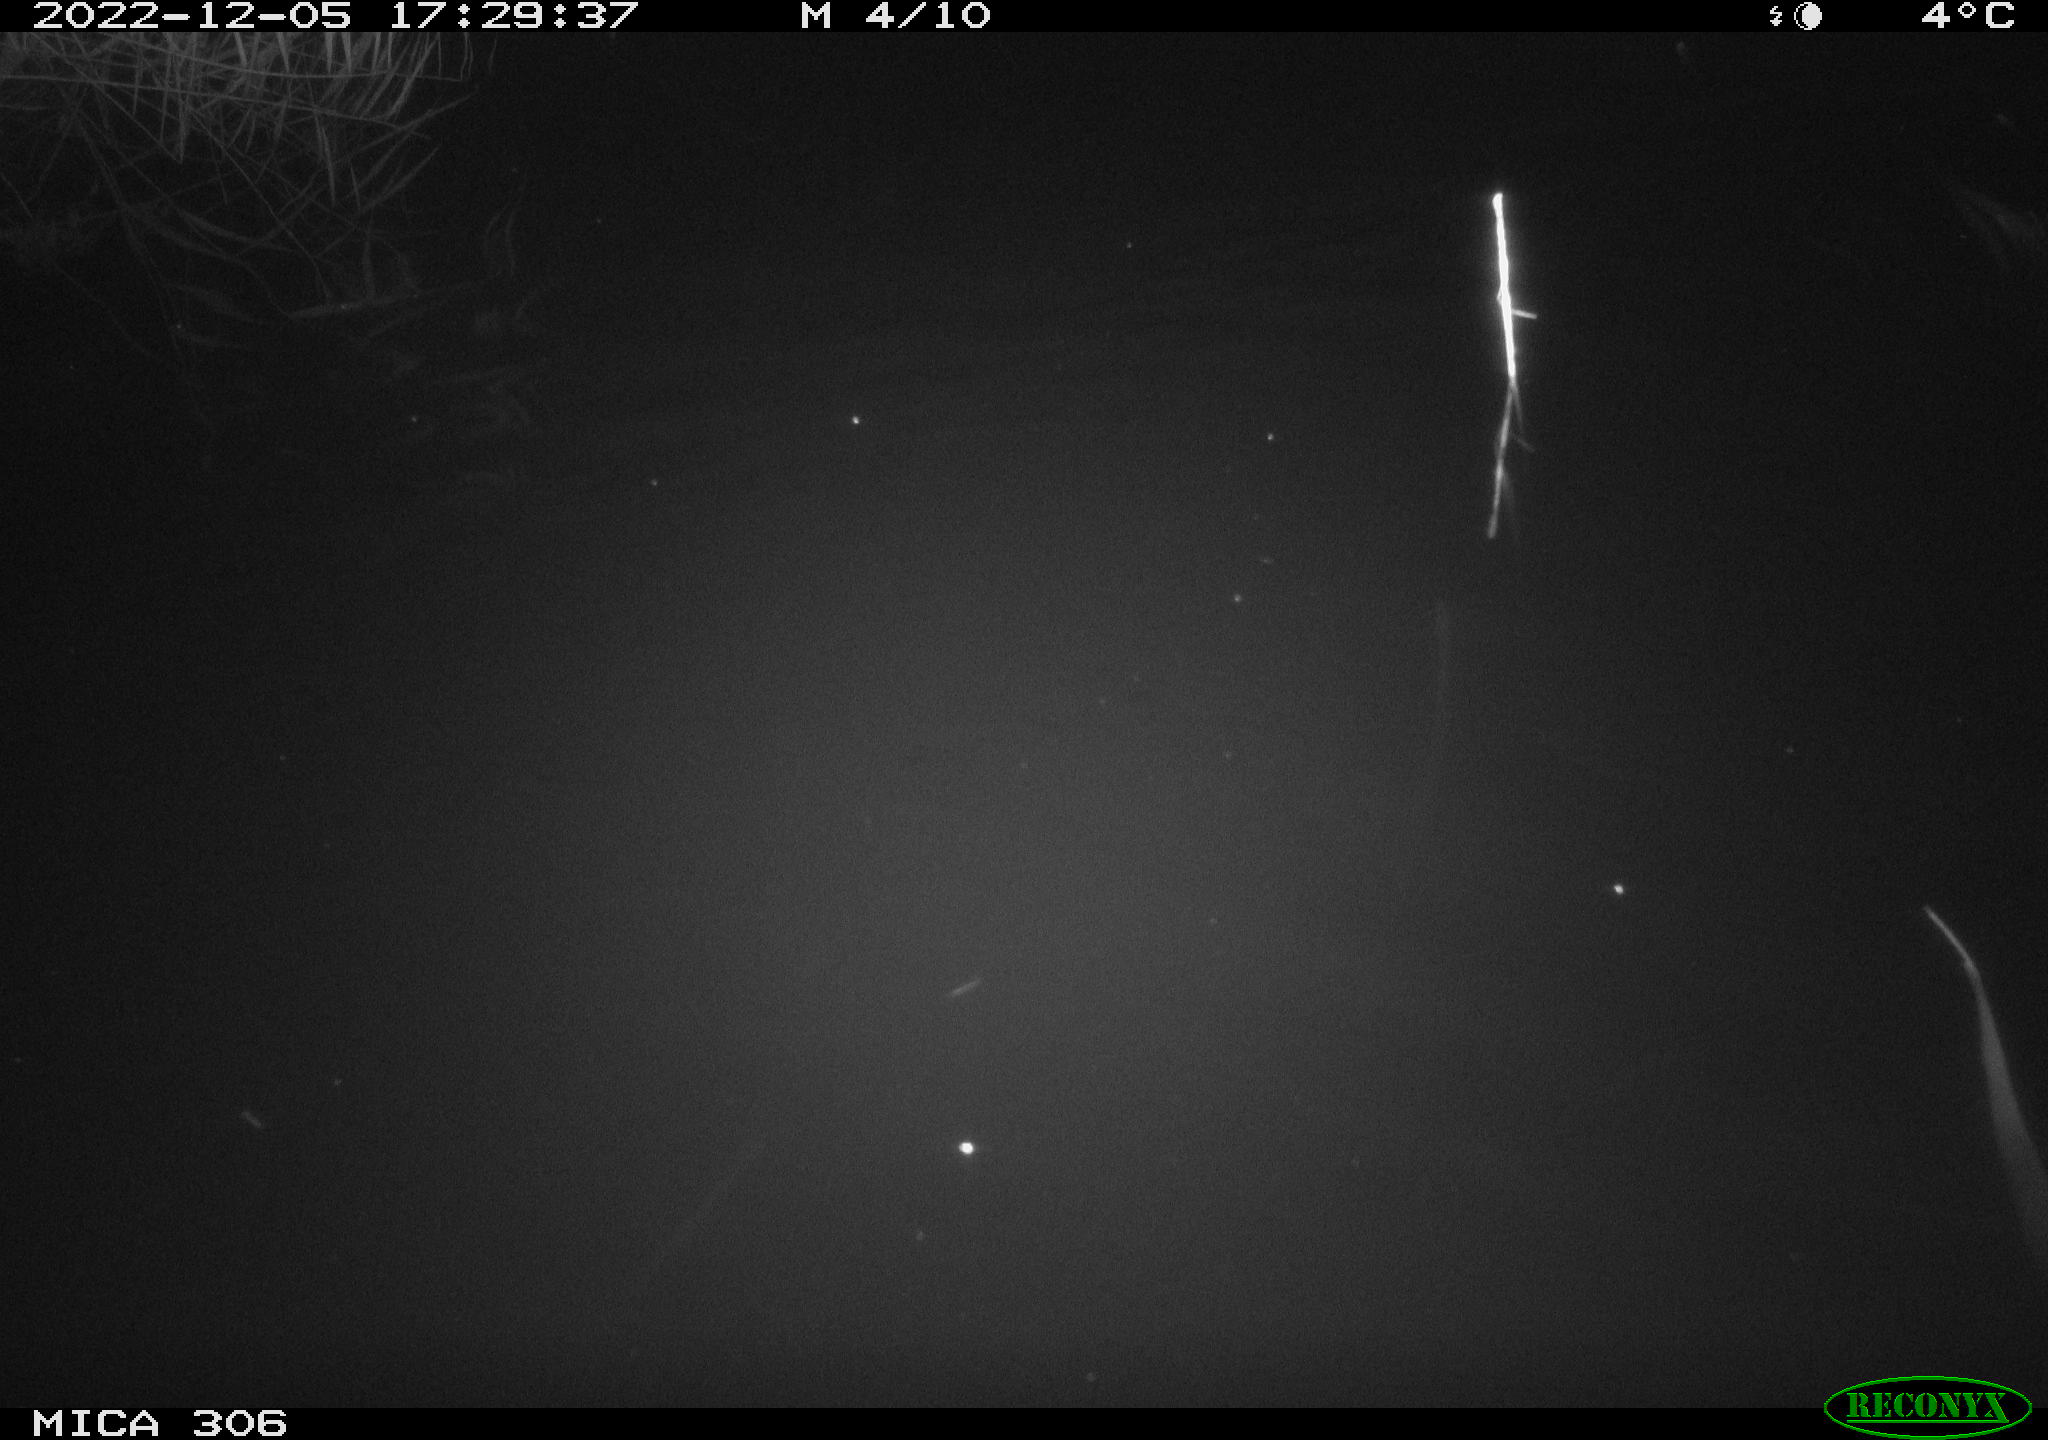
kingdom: Animalia
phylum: Chordata
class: Mammalia
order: Rodentia
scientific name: Rodentia
